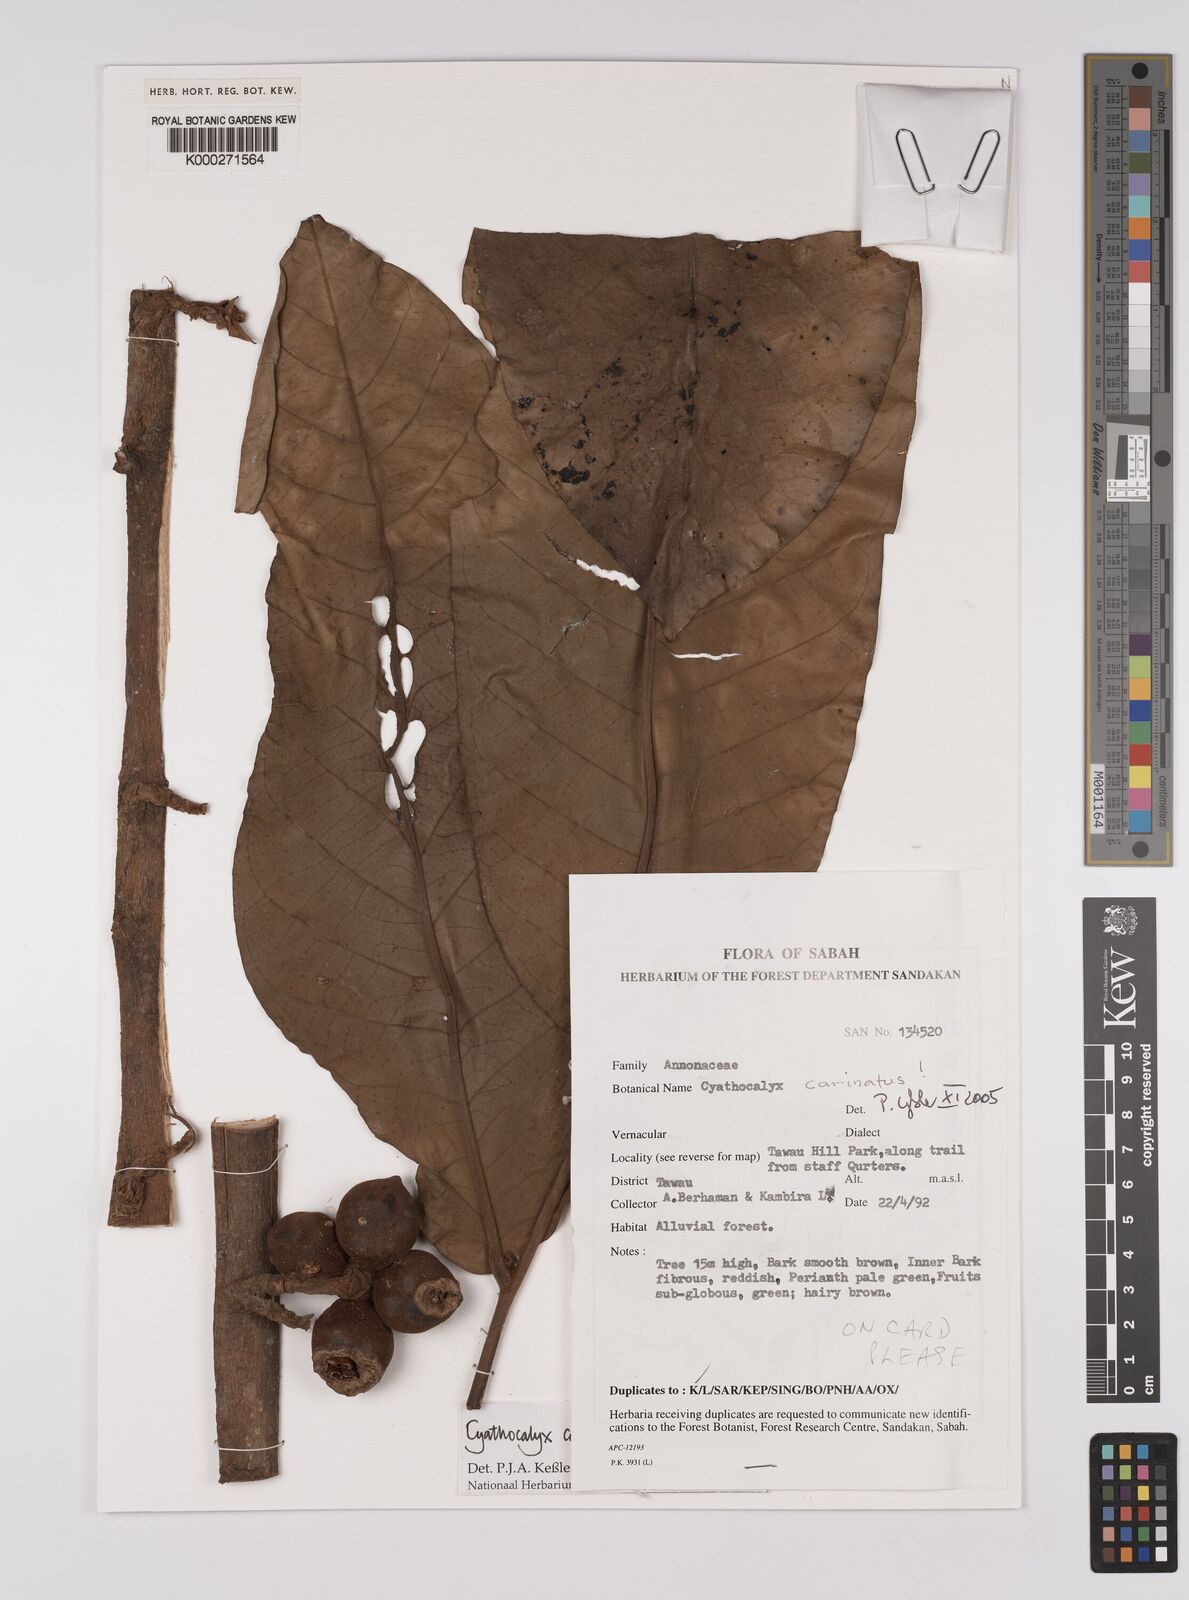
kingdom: Plantae
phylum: Tracheophyta
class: Magnoliopsida
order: Magnoliales
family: Annonaceae
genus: Drepananthus
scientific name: Drepananthus carinatus
